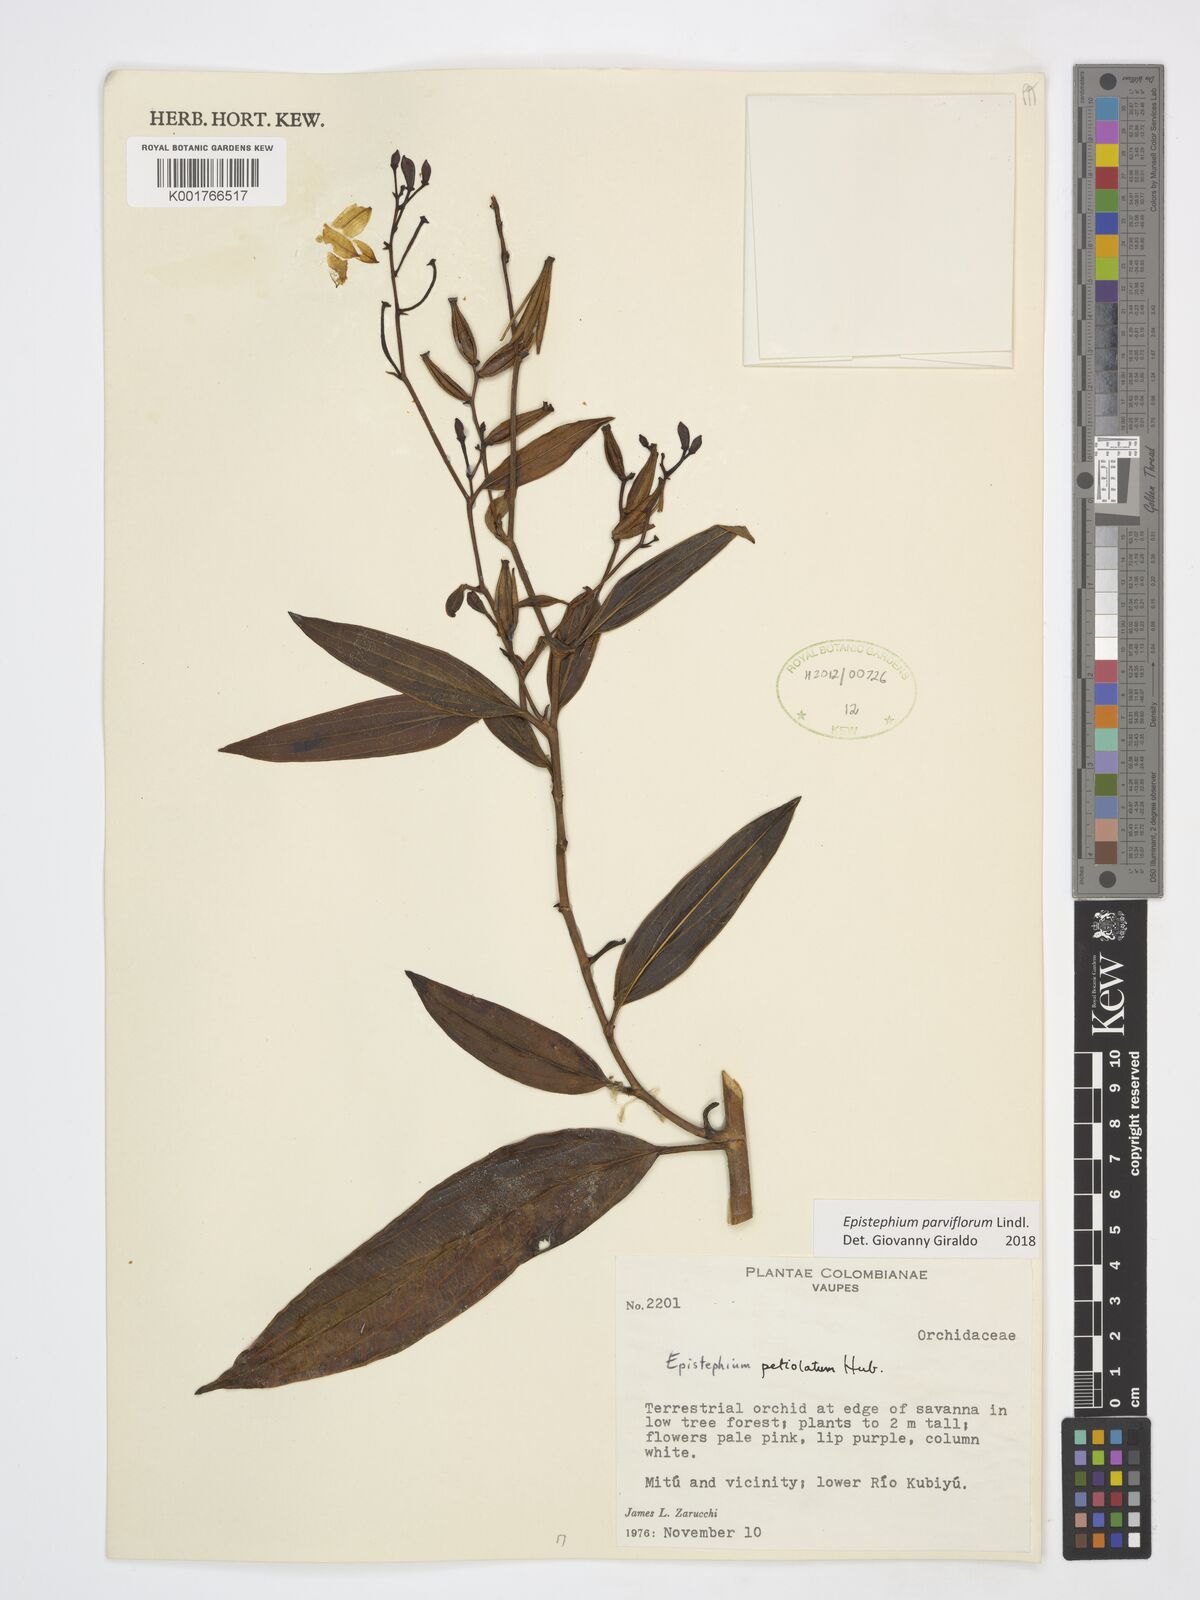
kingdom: Plantae
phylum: Tracheophyta
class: Liliopsida
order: Asparagales
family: Orchidaceae
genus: Epistephium
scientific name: Epistephium parviflorum
